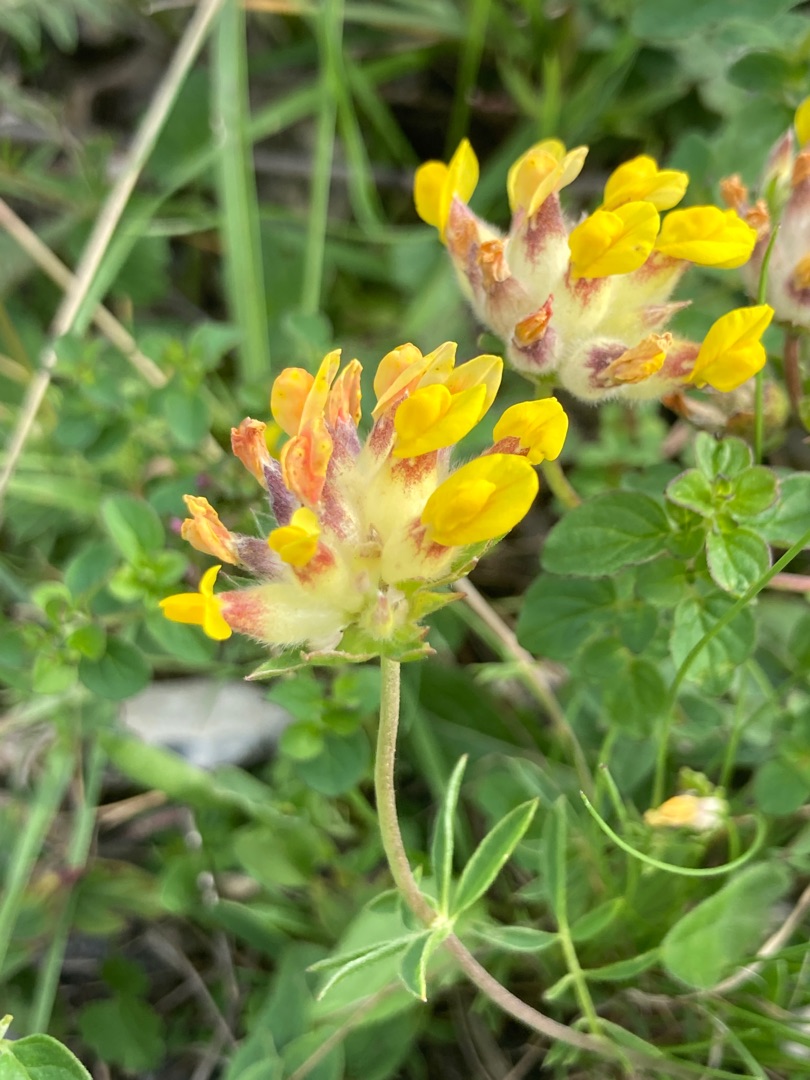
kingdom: Plantae
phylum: Tracheophyta
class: Magnoliopsida
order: Fabales
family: Fabaceae
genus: Anthyllis
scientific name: Anthyllis vulneraria
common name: Rundbælg
